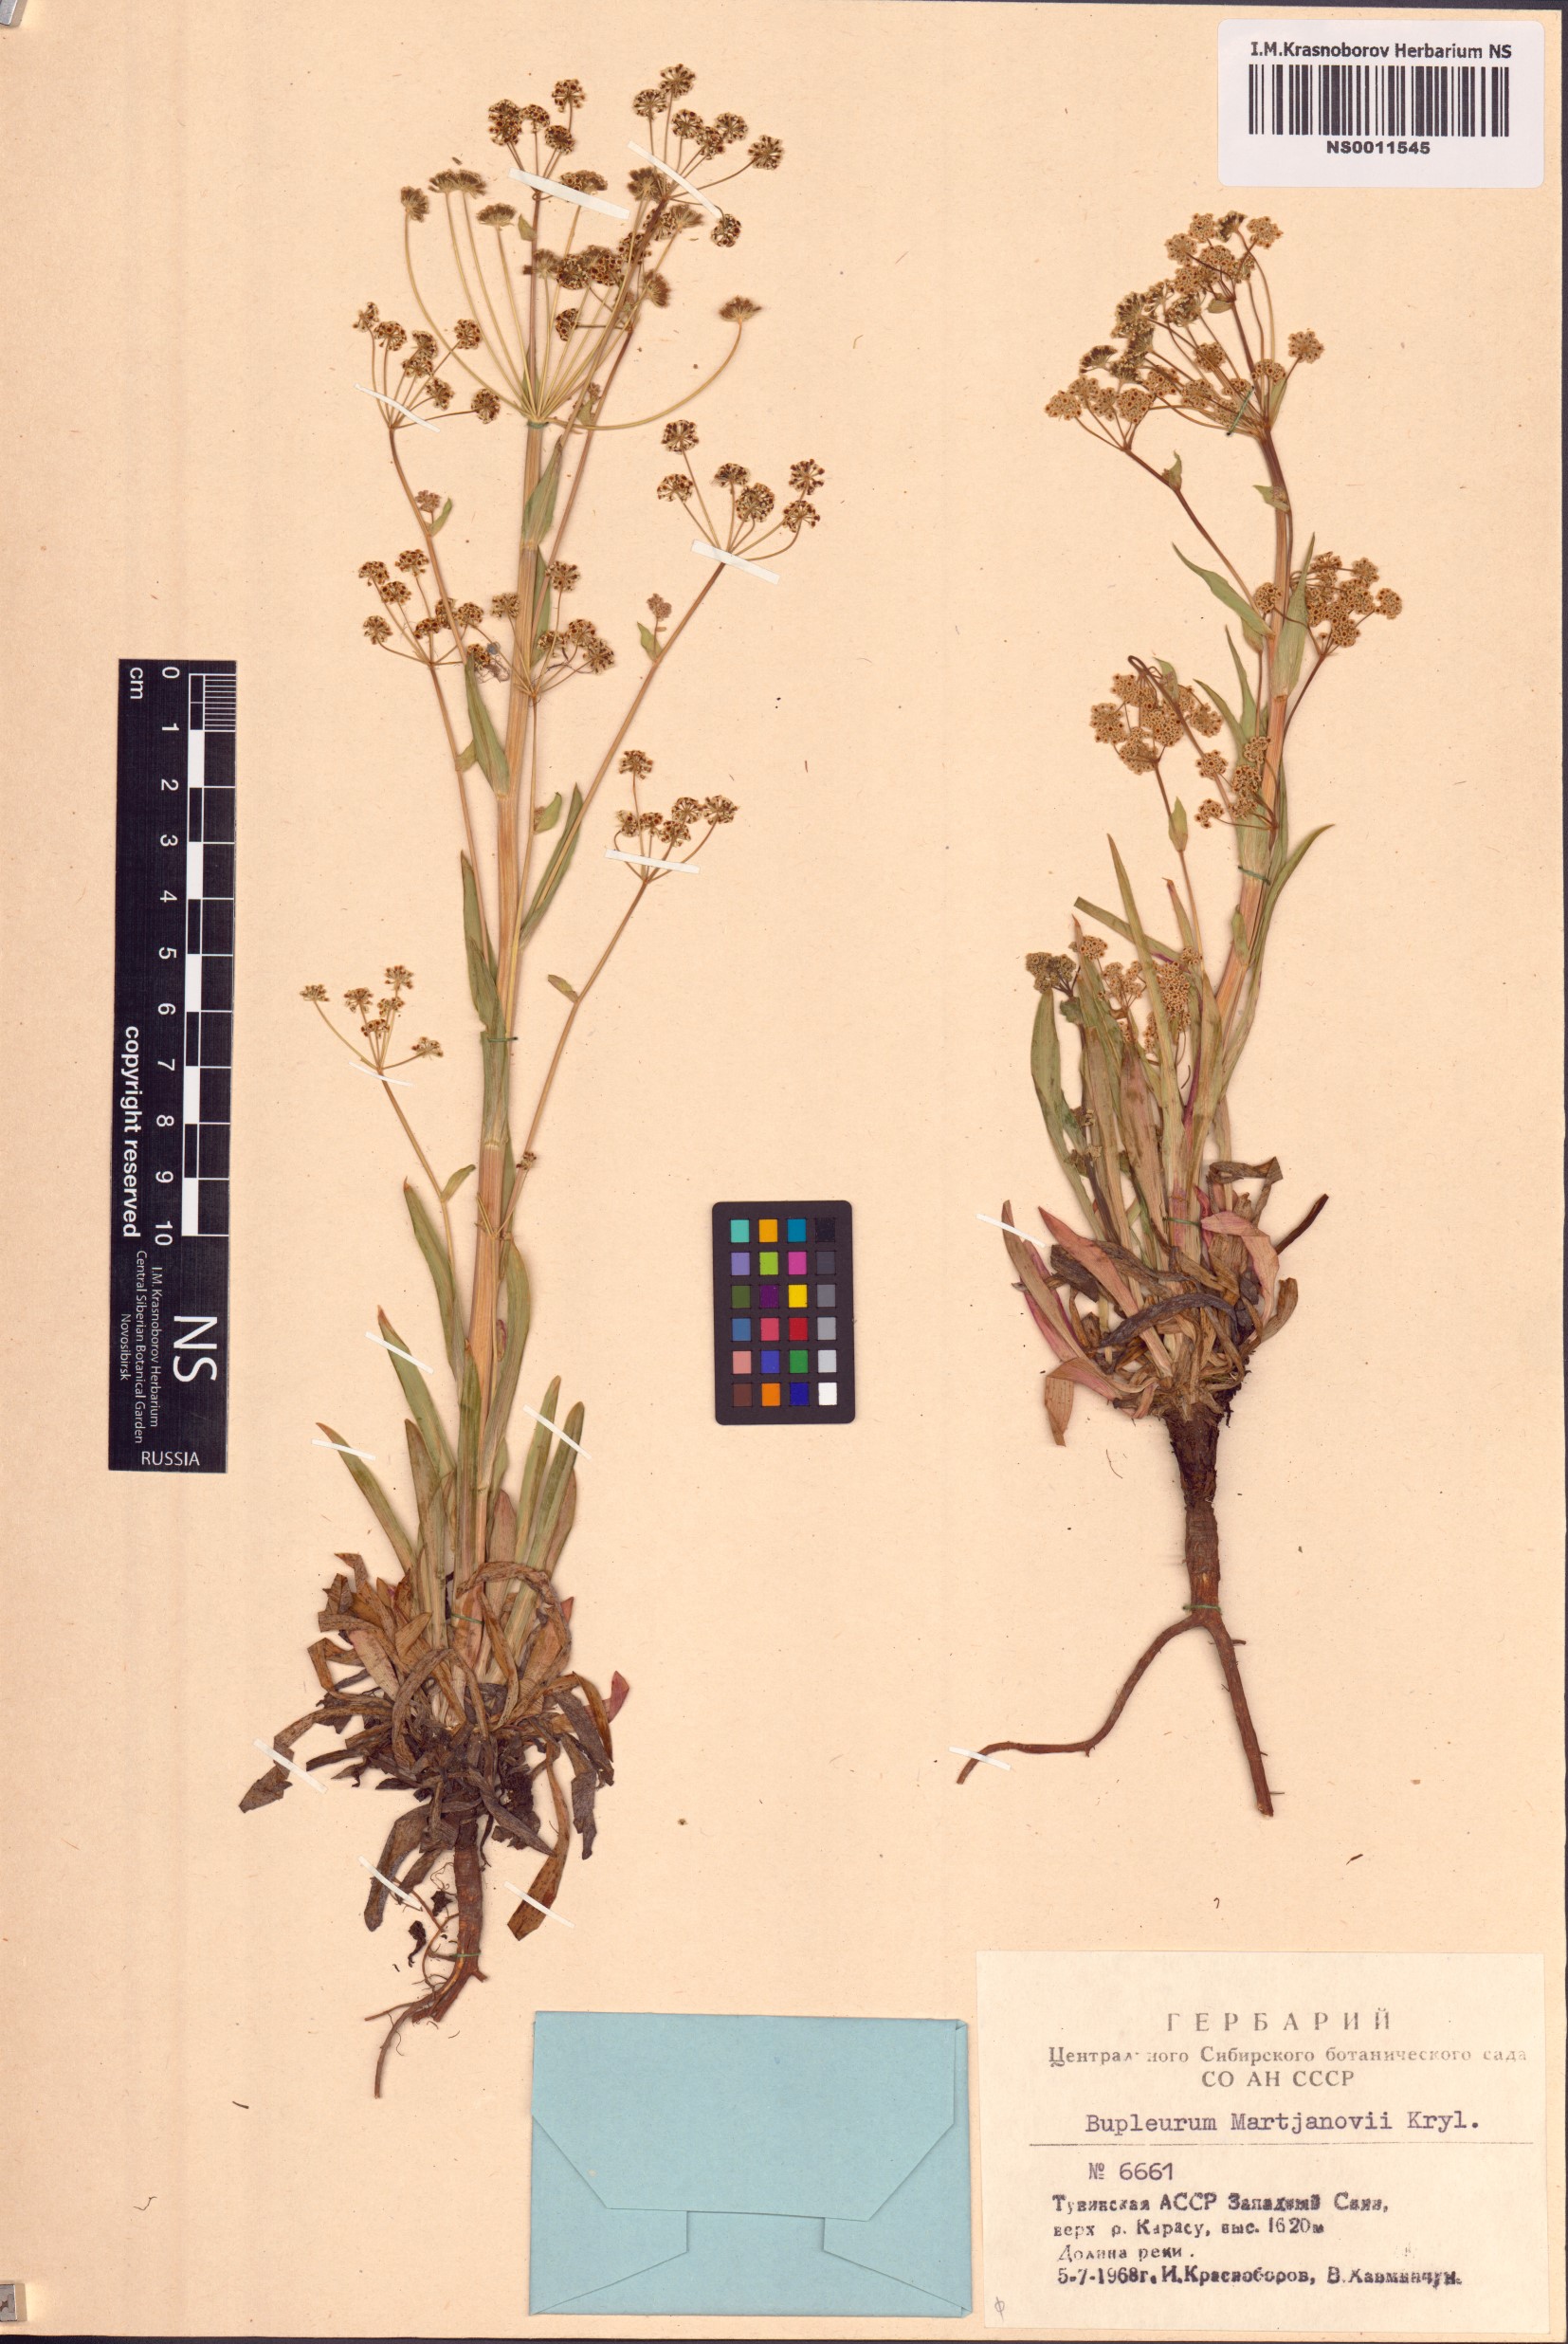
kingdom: Plantae
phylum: Tracheophyta
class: Magnoliopsida
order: Apiales
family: Apiaceae
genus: Bupleurum
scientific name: Bupleurum martjanovii
